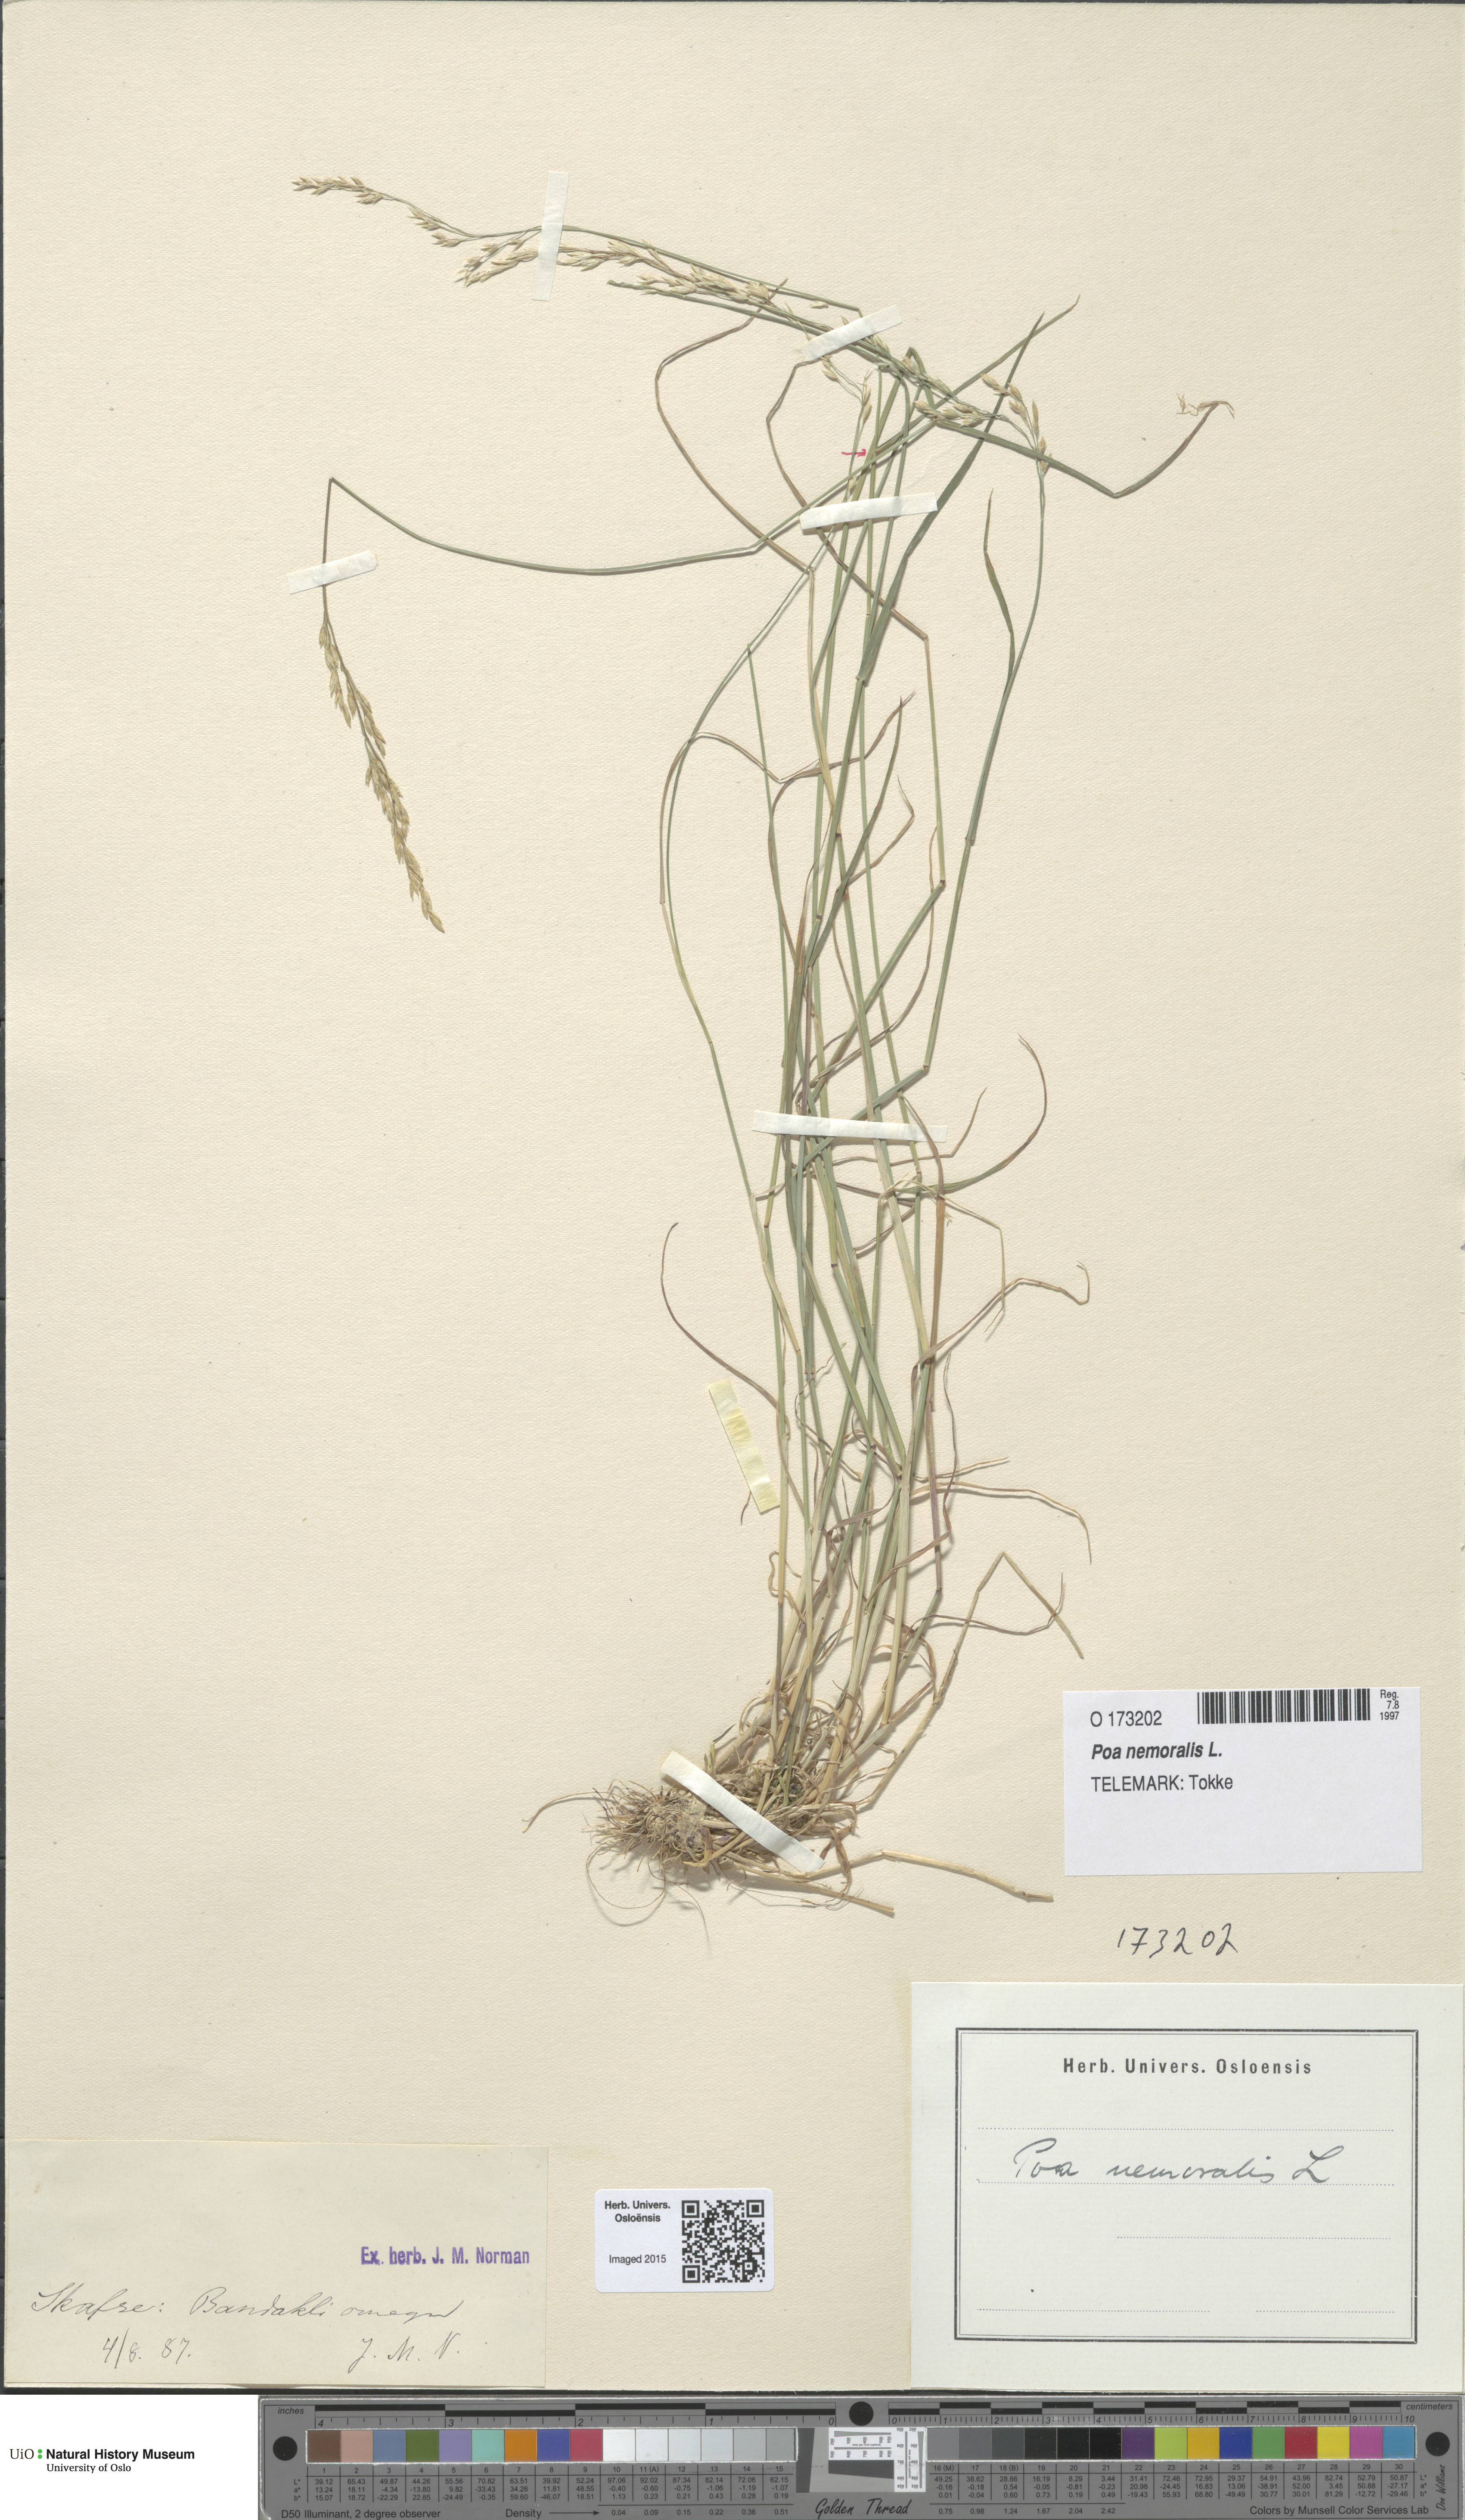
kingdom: Plantae
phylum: Tracheophyta
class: Liliopsida
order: Poales
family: Poaceae
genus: Poa
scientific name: Poa nemoralis
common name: Wood bluegrass
